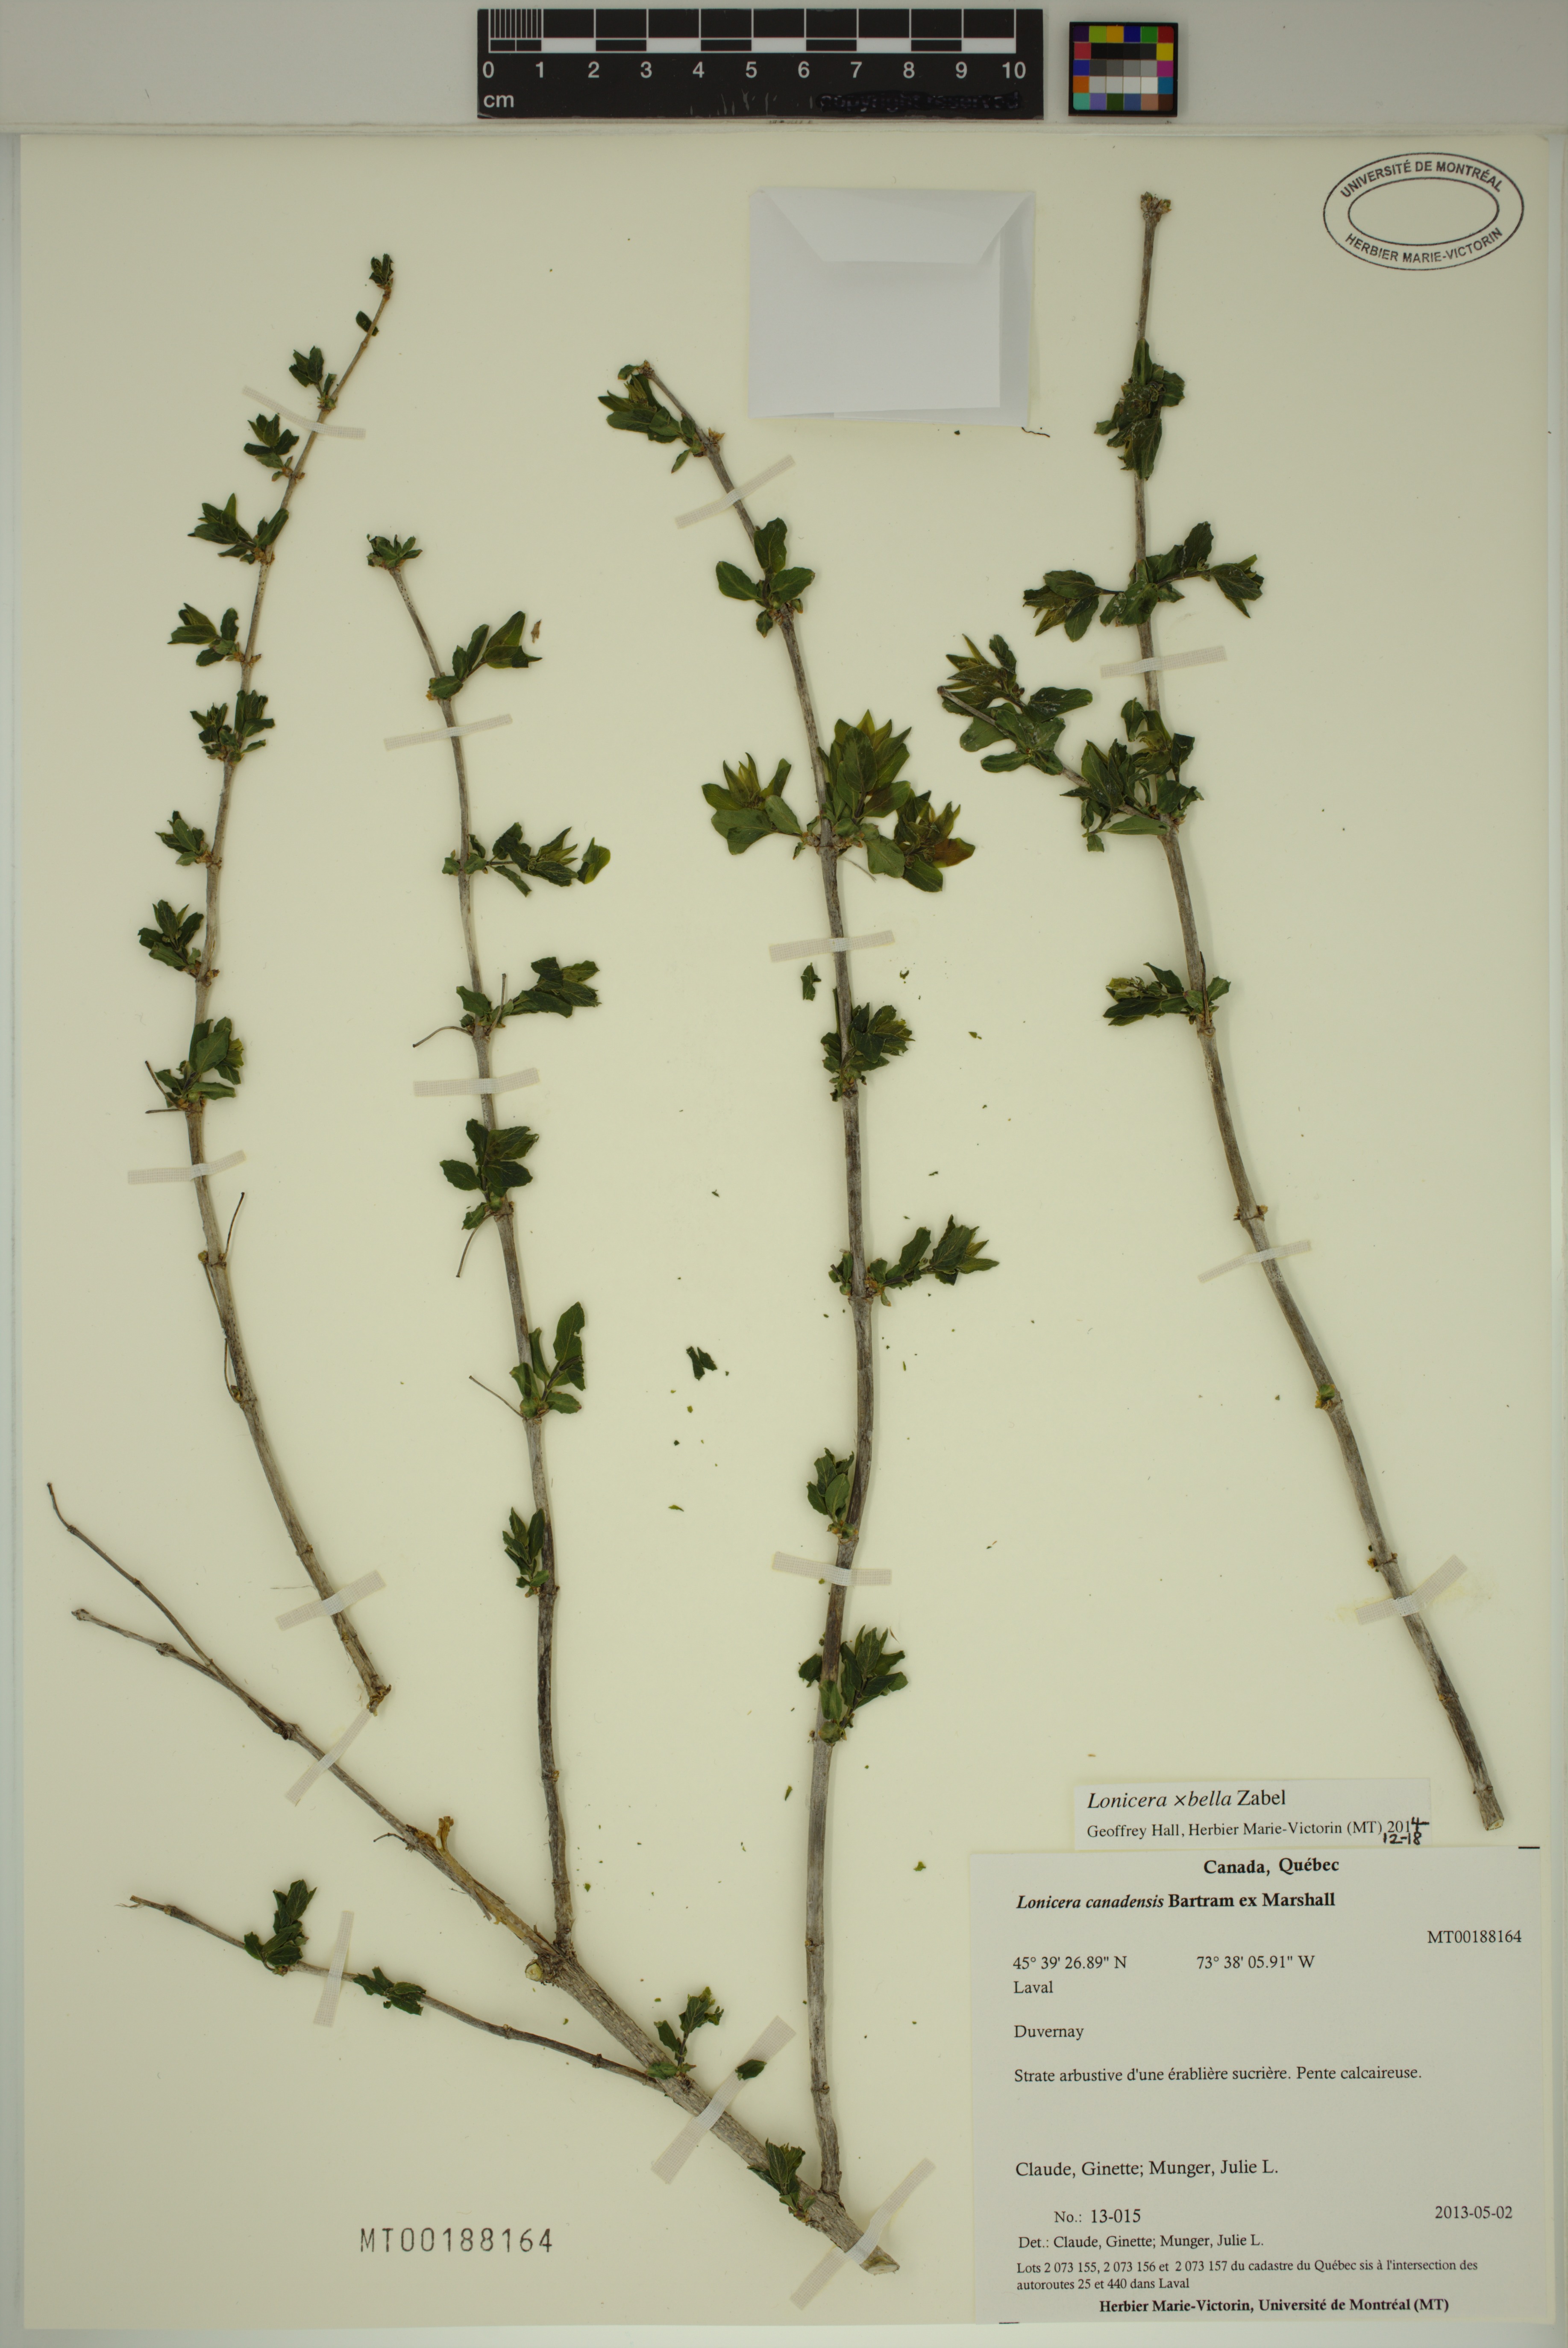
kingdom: Plantae
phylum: Tracheophyta
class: Magnoliopsida
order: Dipsacales
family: Caprifoliaceae
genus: Lonicera
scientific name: Lonicera bella
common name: Bell's honeysuckle
